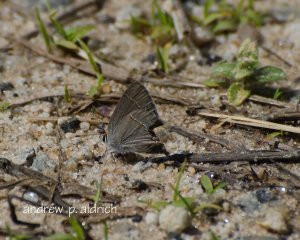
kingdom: Animalia
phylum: Arthropoda
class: Insecta
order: Lepidoptera
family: Lycaenidae
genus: Strymon
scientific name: Strymon melinus
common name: Gray Hairstreak
